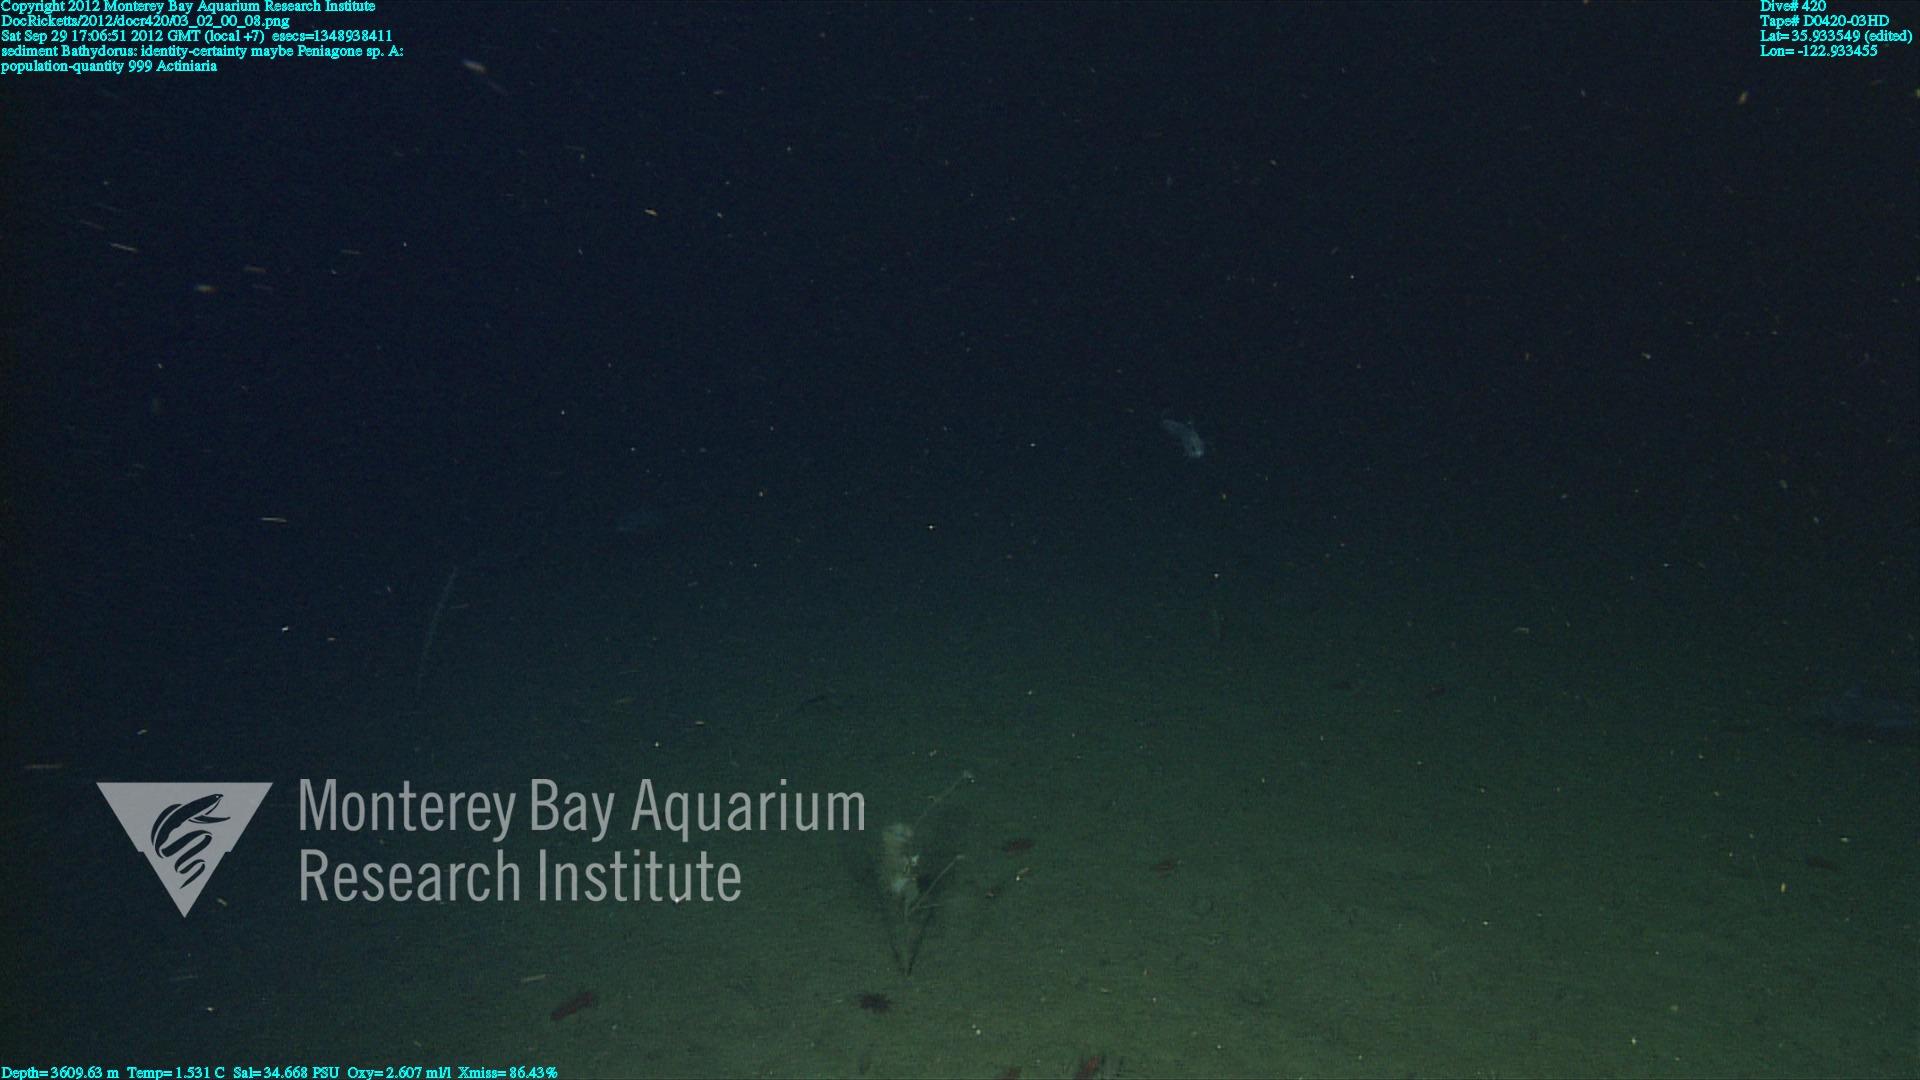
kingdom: Animalia
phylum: Porifera
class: Hexactinellida
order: Lyssacinosida
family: Rossellidae
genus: Bathydorus
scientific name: Bathydorus
